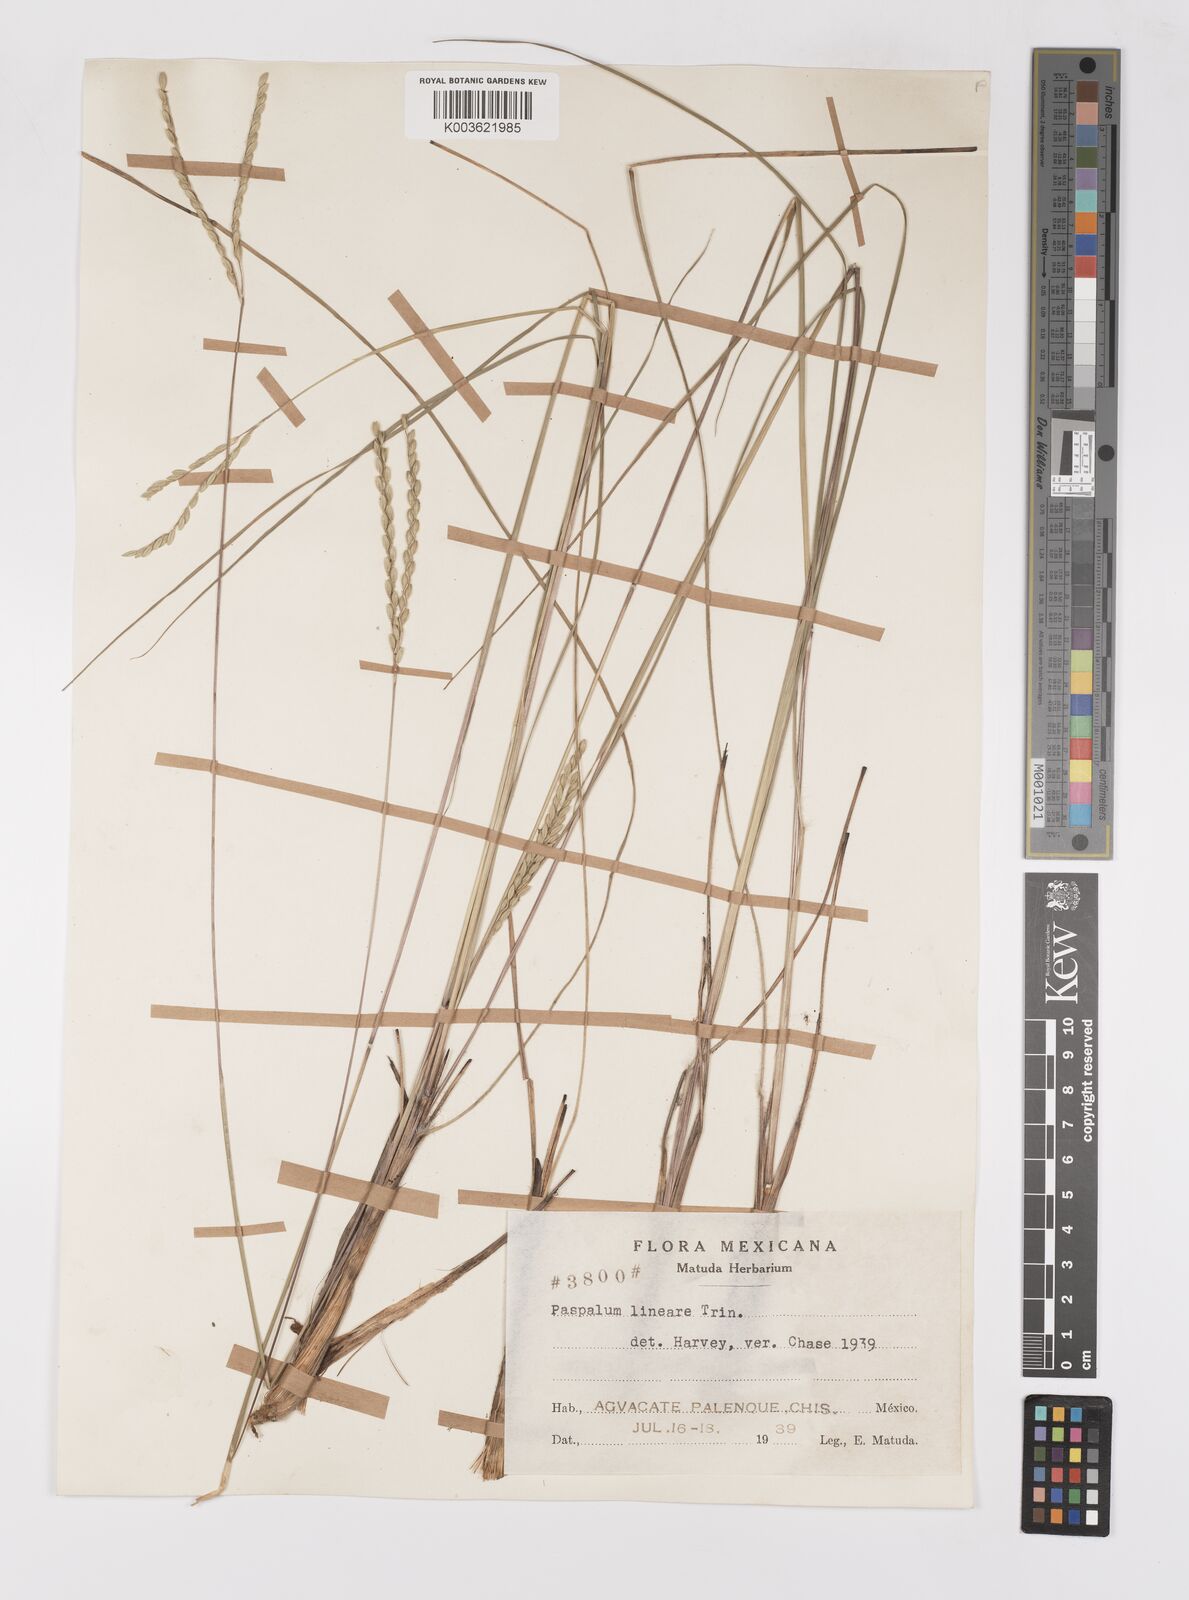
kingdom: Plantae
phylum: Tracheophyta
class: Liliopsida
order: Poales
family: Poaceae
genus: Paspalum
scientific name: Paspalum lineare
